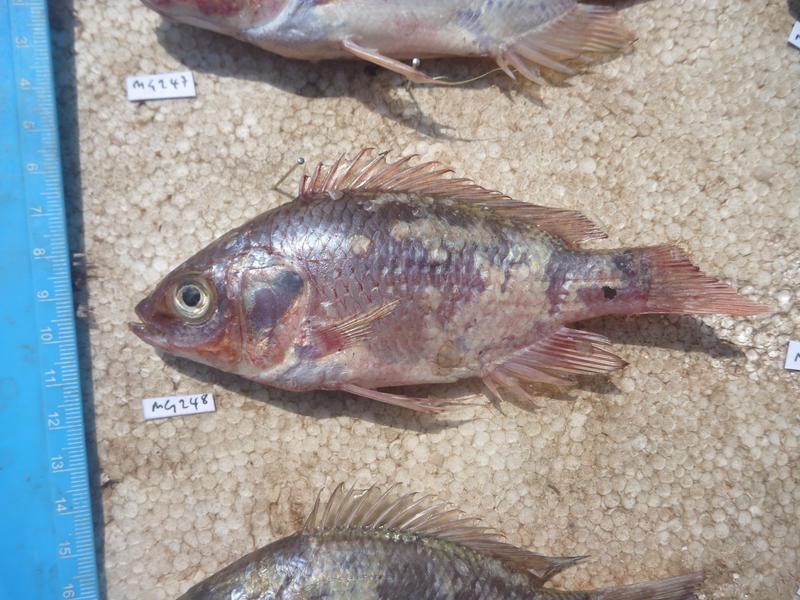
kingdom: Animalia
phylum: Chordata
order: Perciformes
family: Cichlidae
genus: Oreochromis
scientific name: Oreochromis esculentus
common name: Carp
